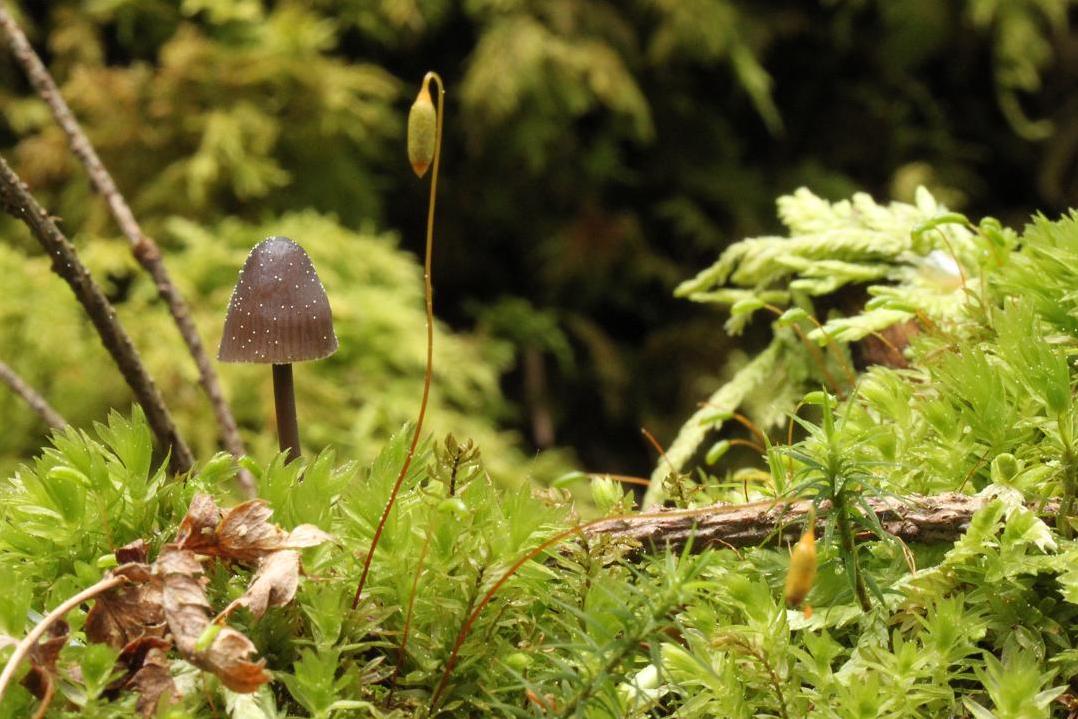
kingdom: Fungi
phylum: Basidiomycota
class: Agaricomycetes
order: Agaricales
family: Mycenaceae
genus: Mycena
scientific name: Mycena silvae-nigrae
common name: tidlig huesvamp
